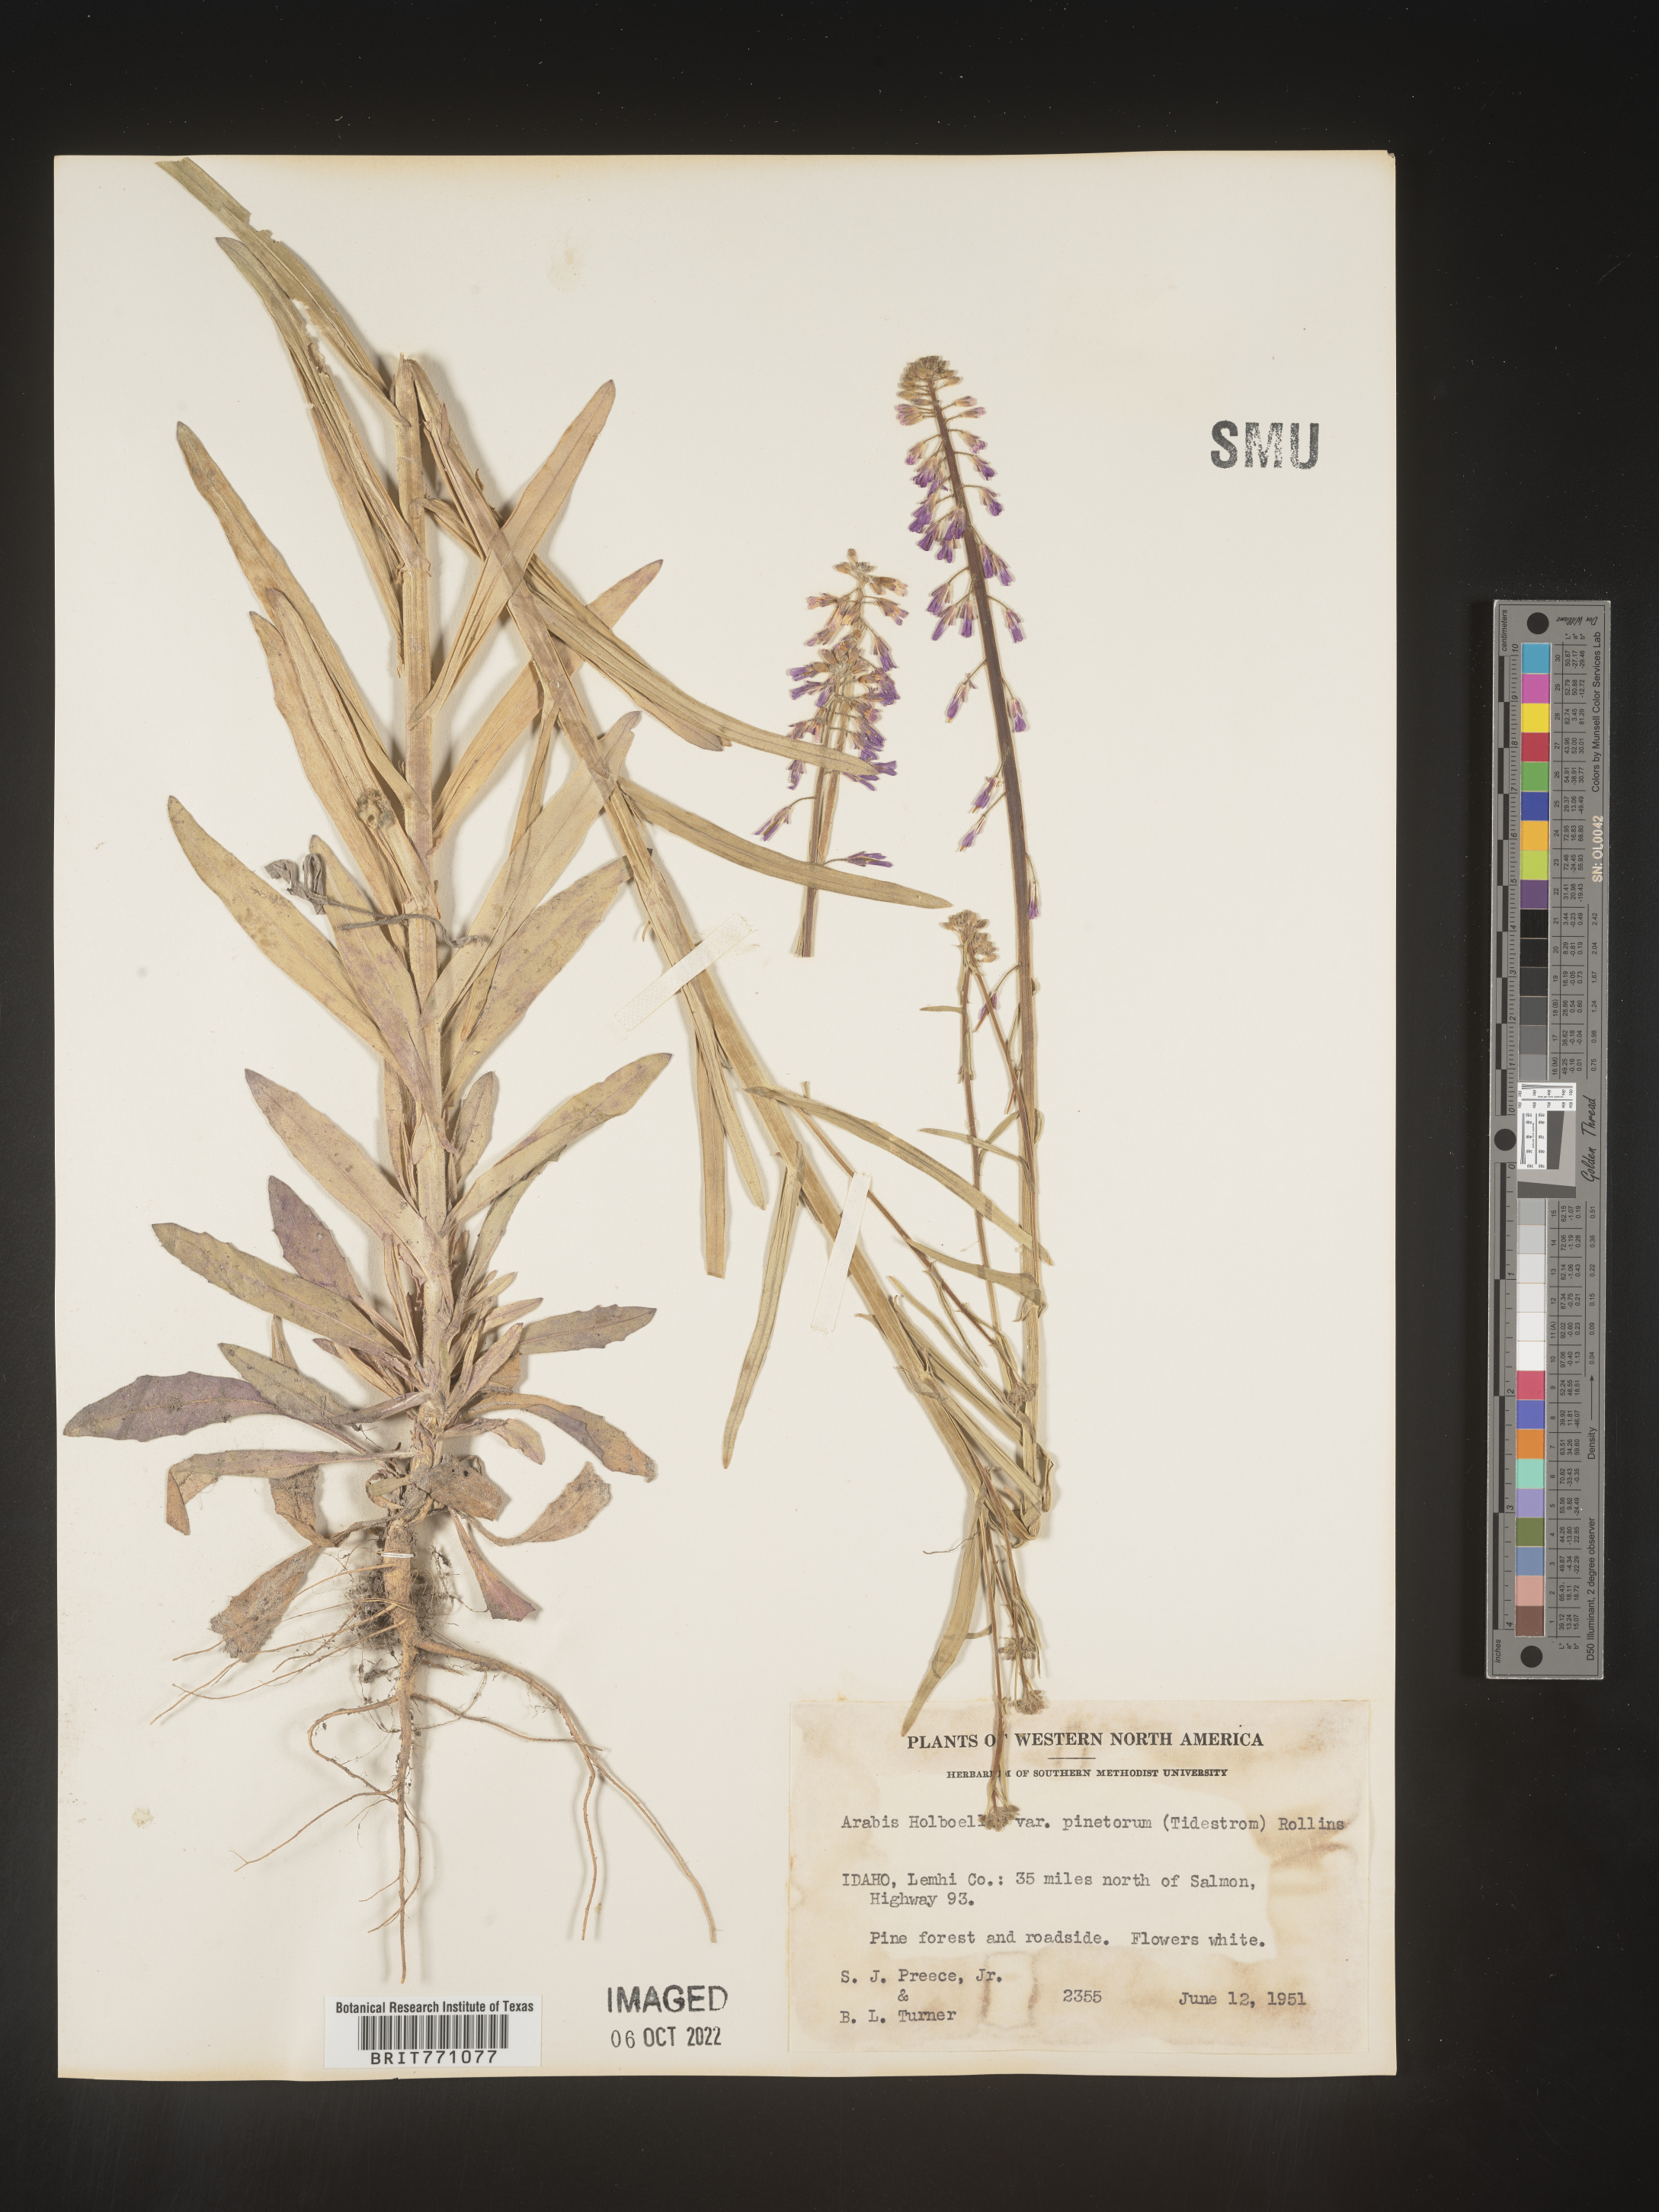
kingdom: Plantae
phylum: Tracheophyta
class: Magnoliopsida
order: Brassicales
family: Brassicaceae
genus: Boechera
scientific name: Boechera holboellii
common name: Holboell's rockcress
